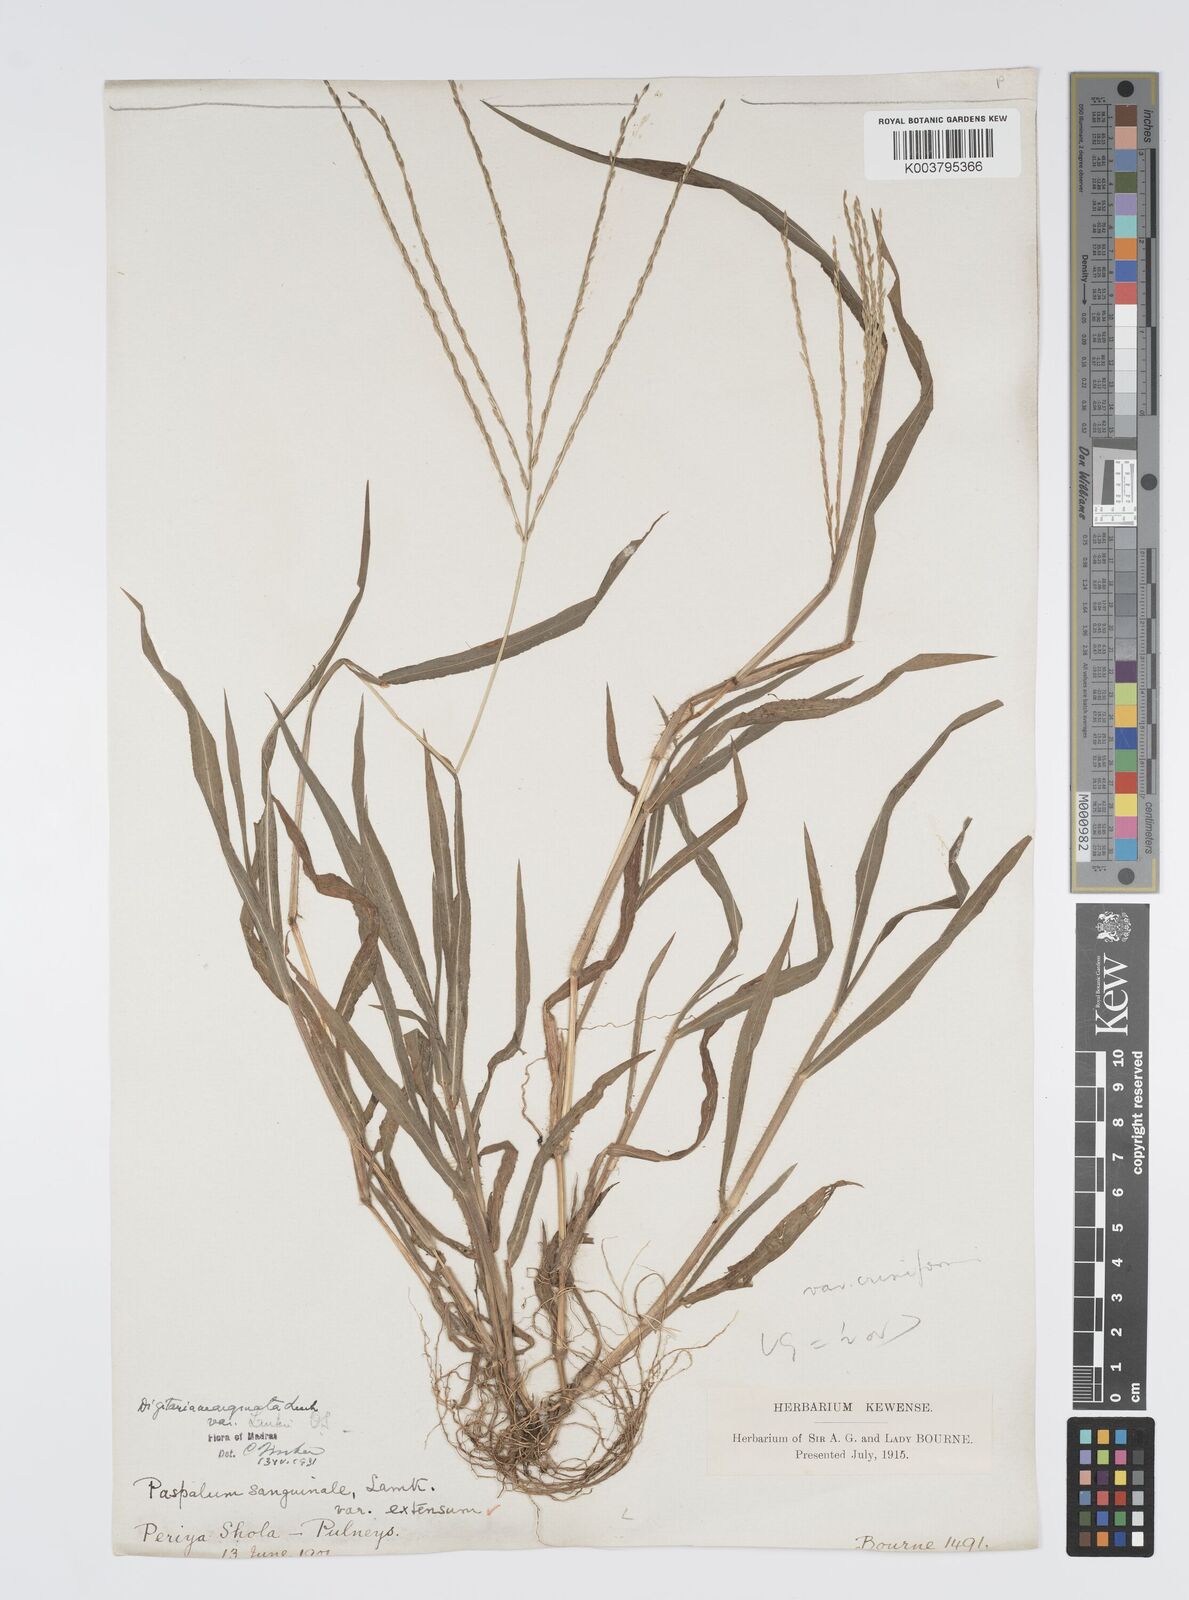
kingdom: Plantae
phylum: Tracheophyta
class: Liliopsida
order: Poales
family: Poaceae
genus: Digitaria
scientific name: Digitaria ciliaris
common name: Tropical finger-grass
